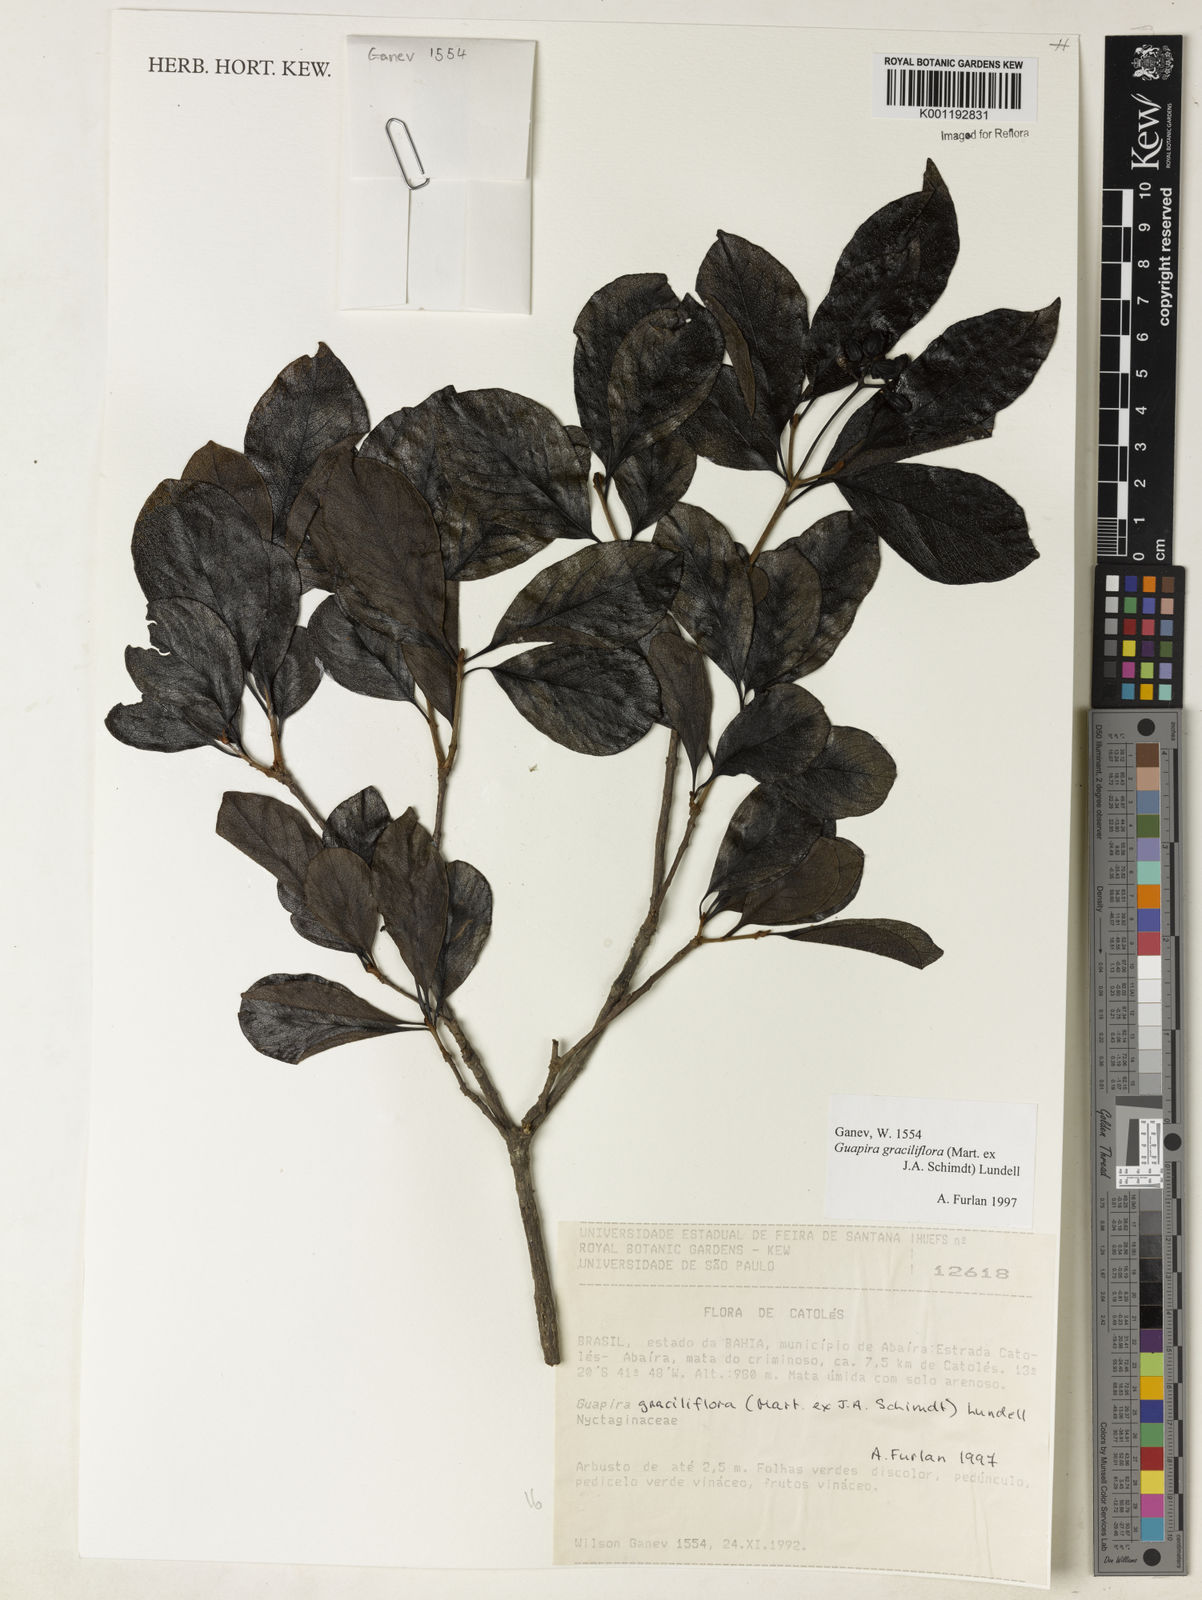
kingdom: Plantae
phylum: Tracheophyta
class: Magnoliopsida
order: Caryophyllales
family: Nyctaginaceae
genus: Guapira
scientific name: Guapira graciliflora
